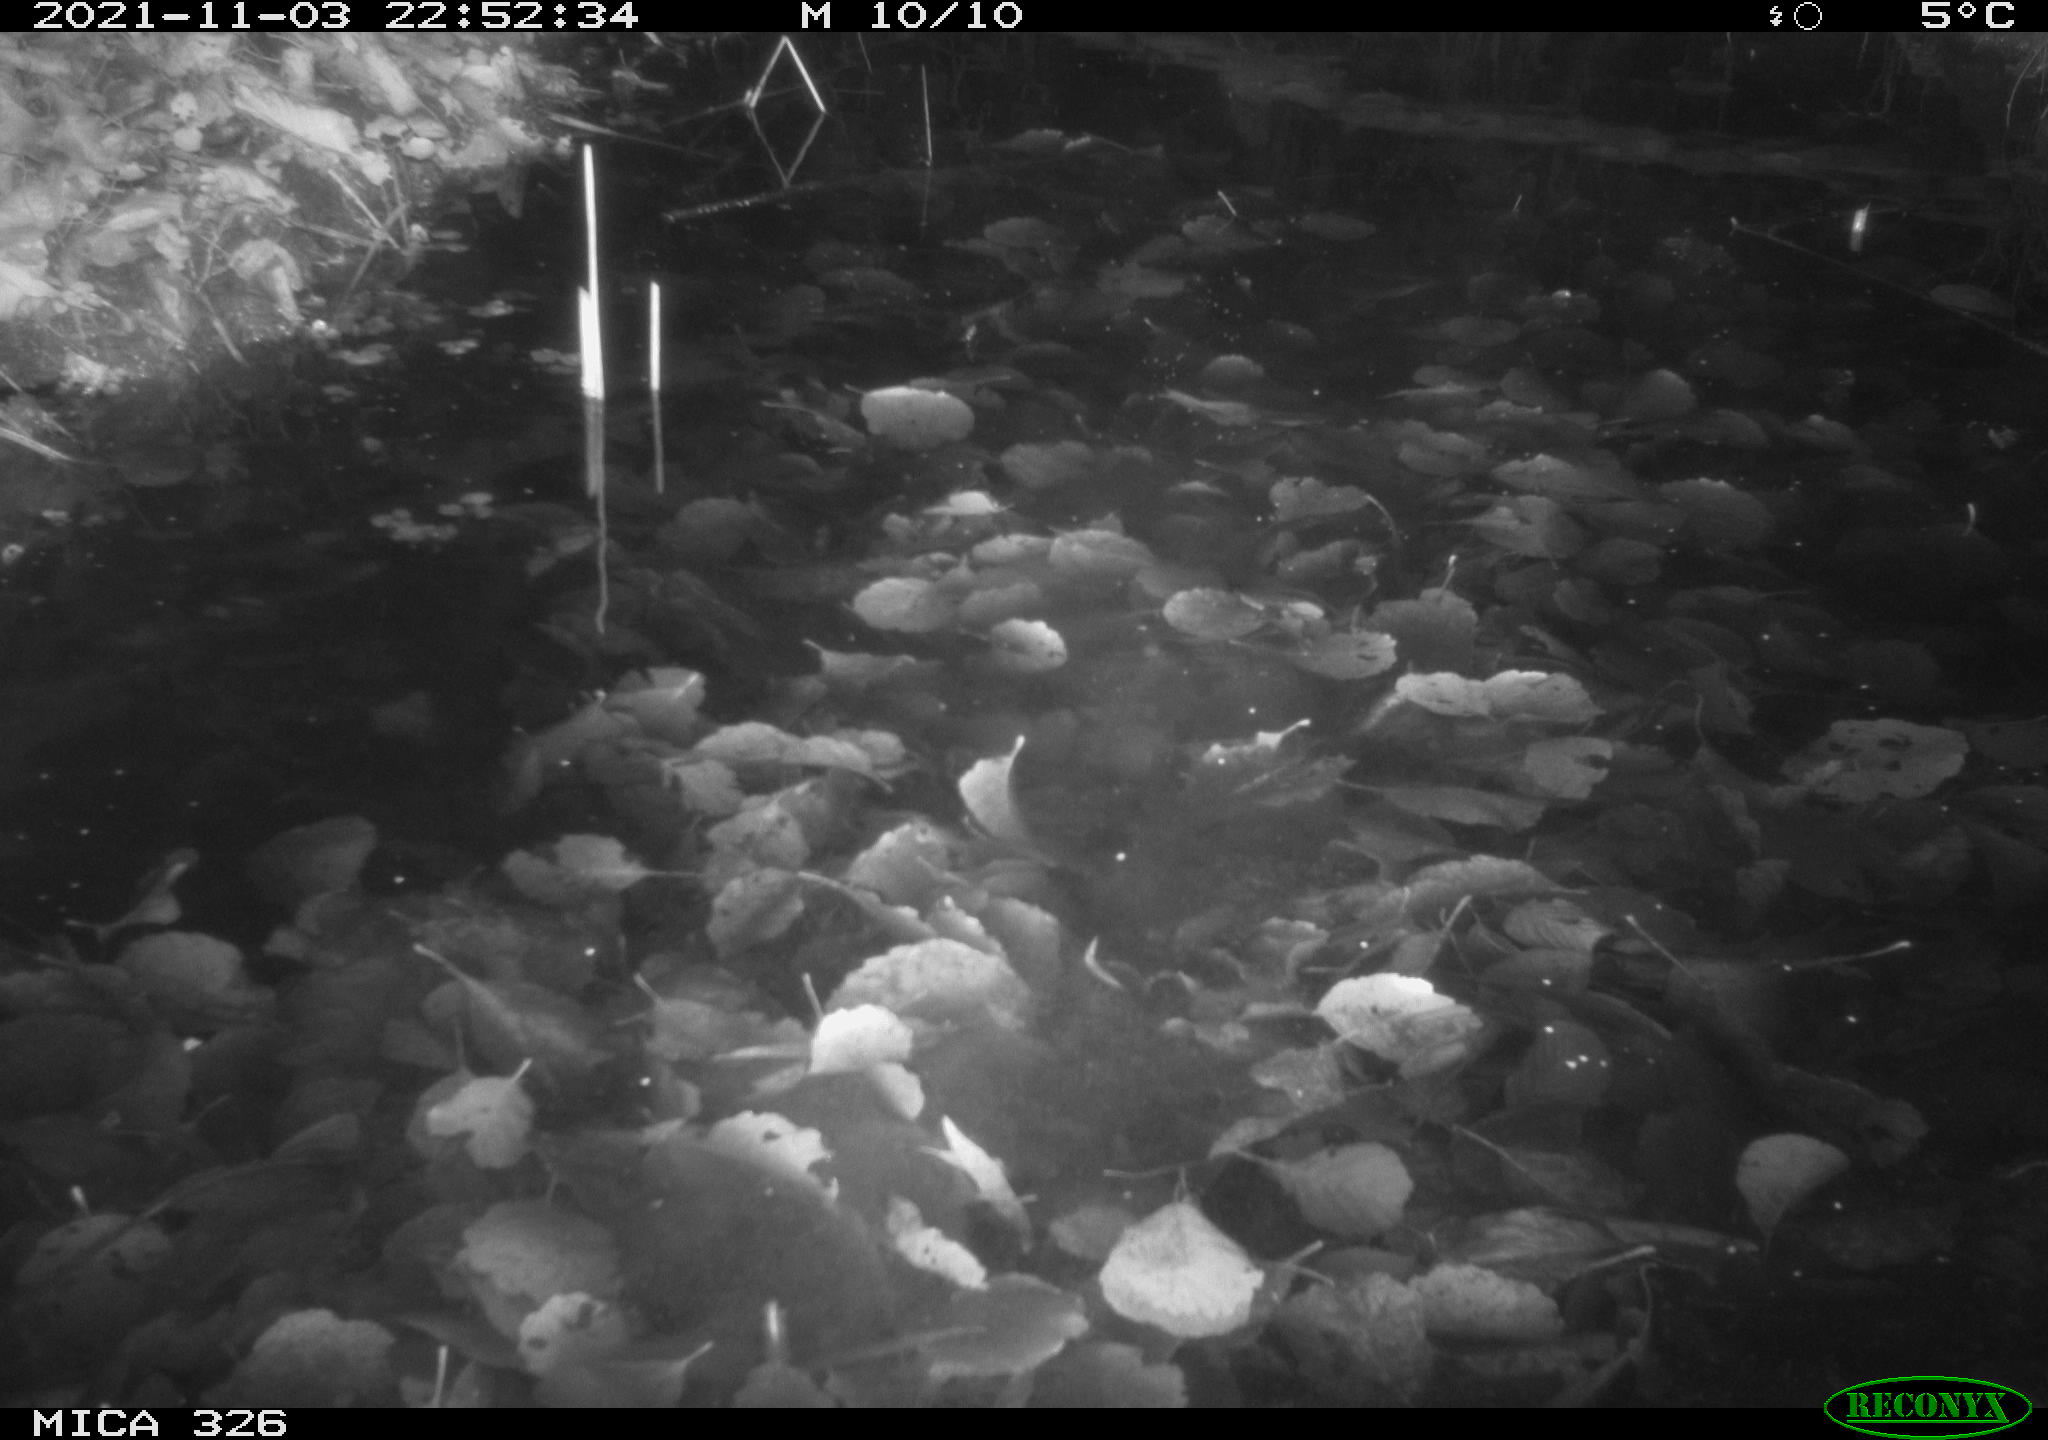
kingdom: Animalia
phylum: Chordata
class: Mammalia
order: Rodentia
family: Myocastoridae
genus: Myocastor
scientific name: Myocastor coypus
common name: Coypu
